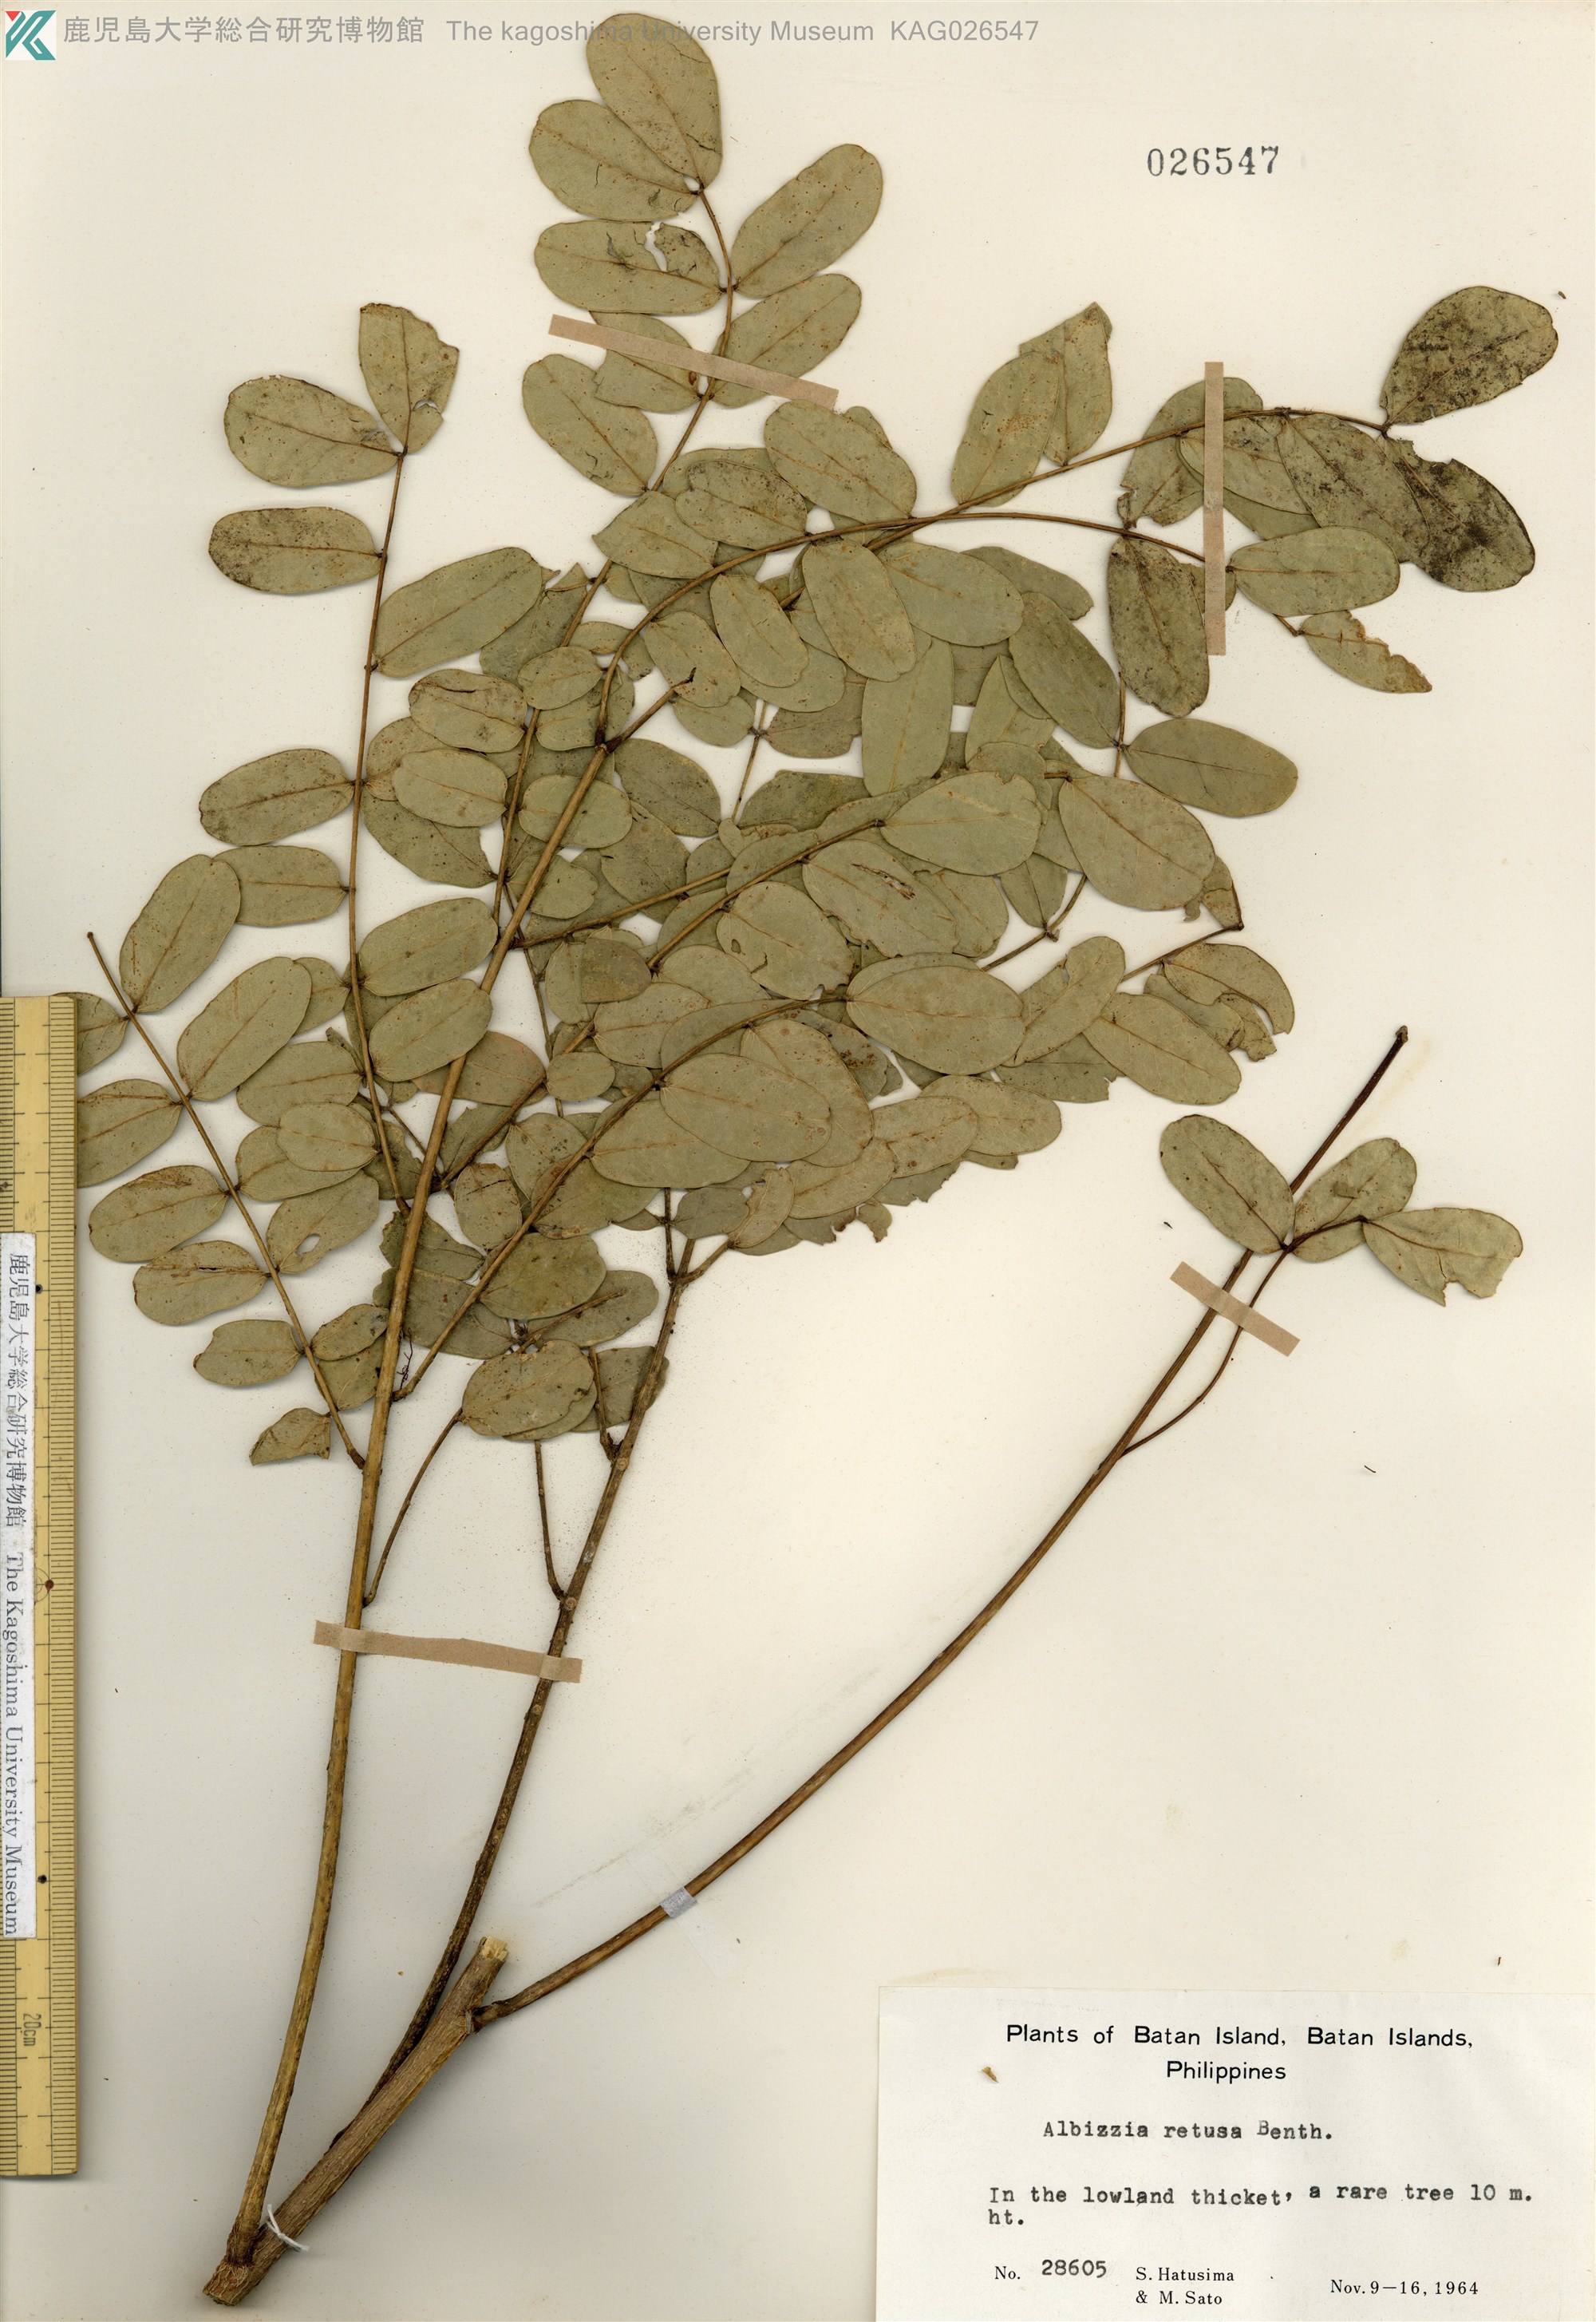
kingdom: Plantae
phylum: Tracheophyta
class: Magnoliopsida
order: Fabales
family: Fabaceae
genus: Albizia
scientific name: Albizia retusa
